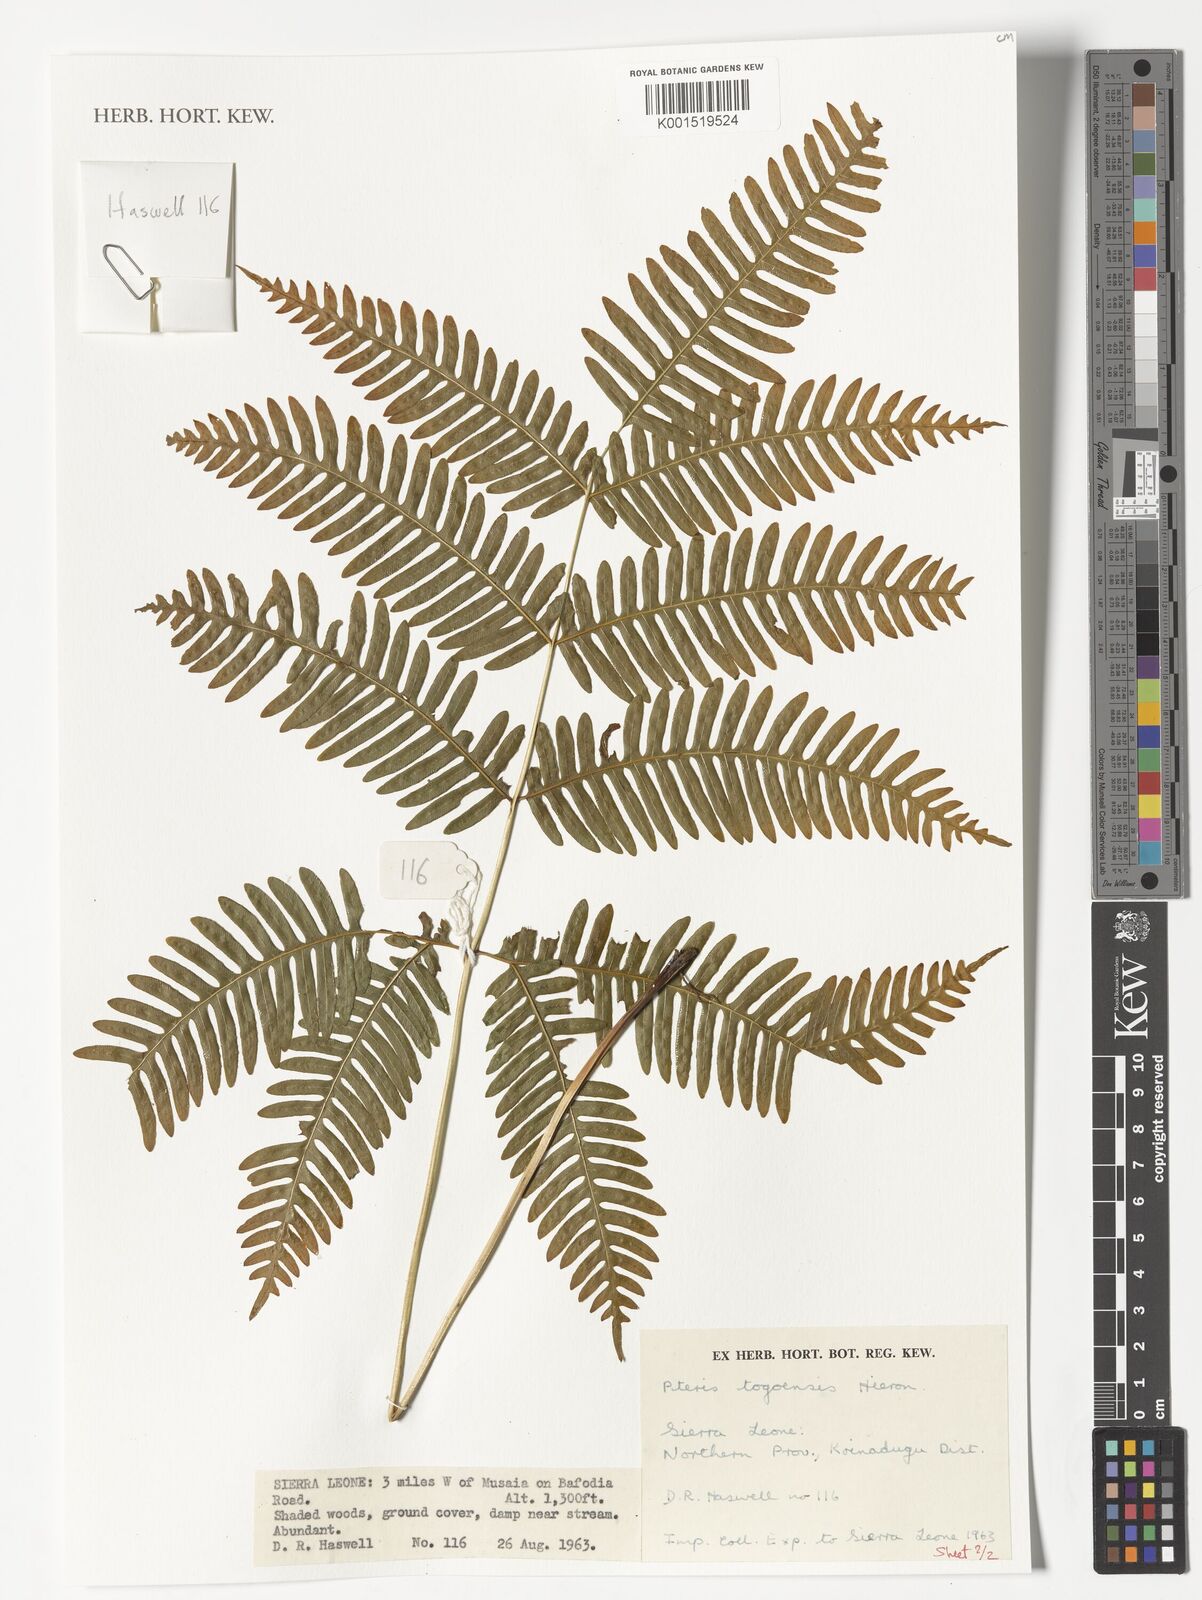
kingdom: Plantae
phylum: Tracheophyta
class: Polypodiopsida
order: Polypodiales
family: Pteridaceae
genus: Pteris
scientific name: Pteris togoensis
